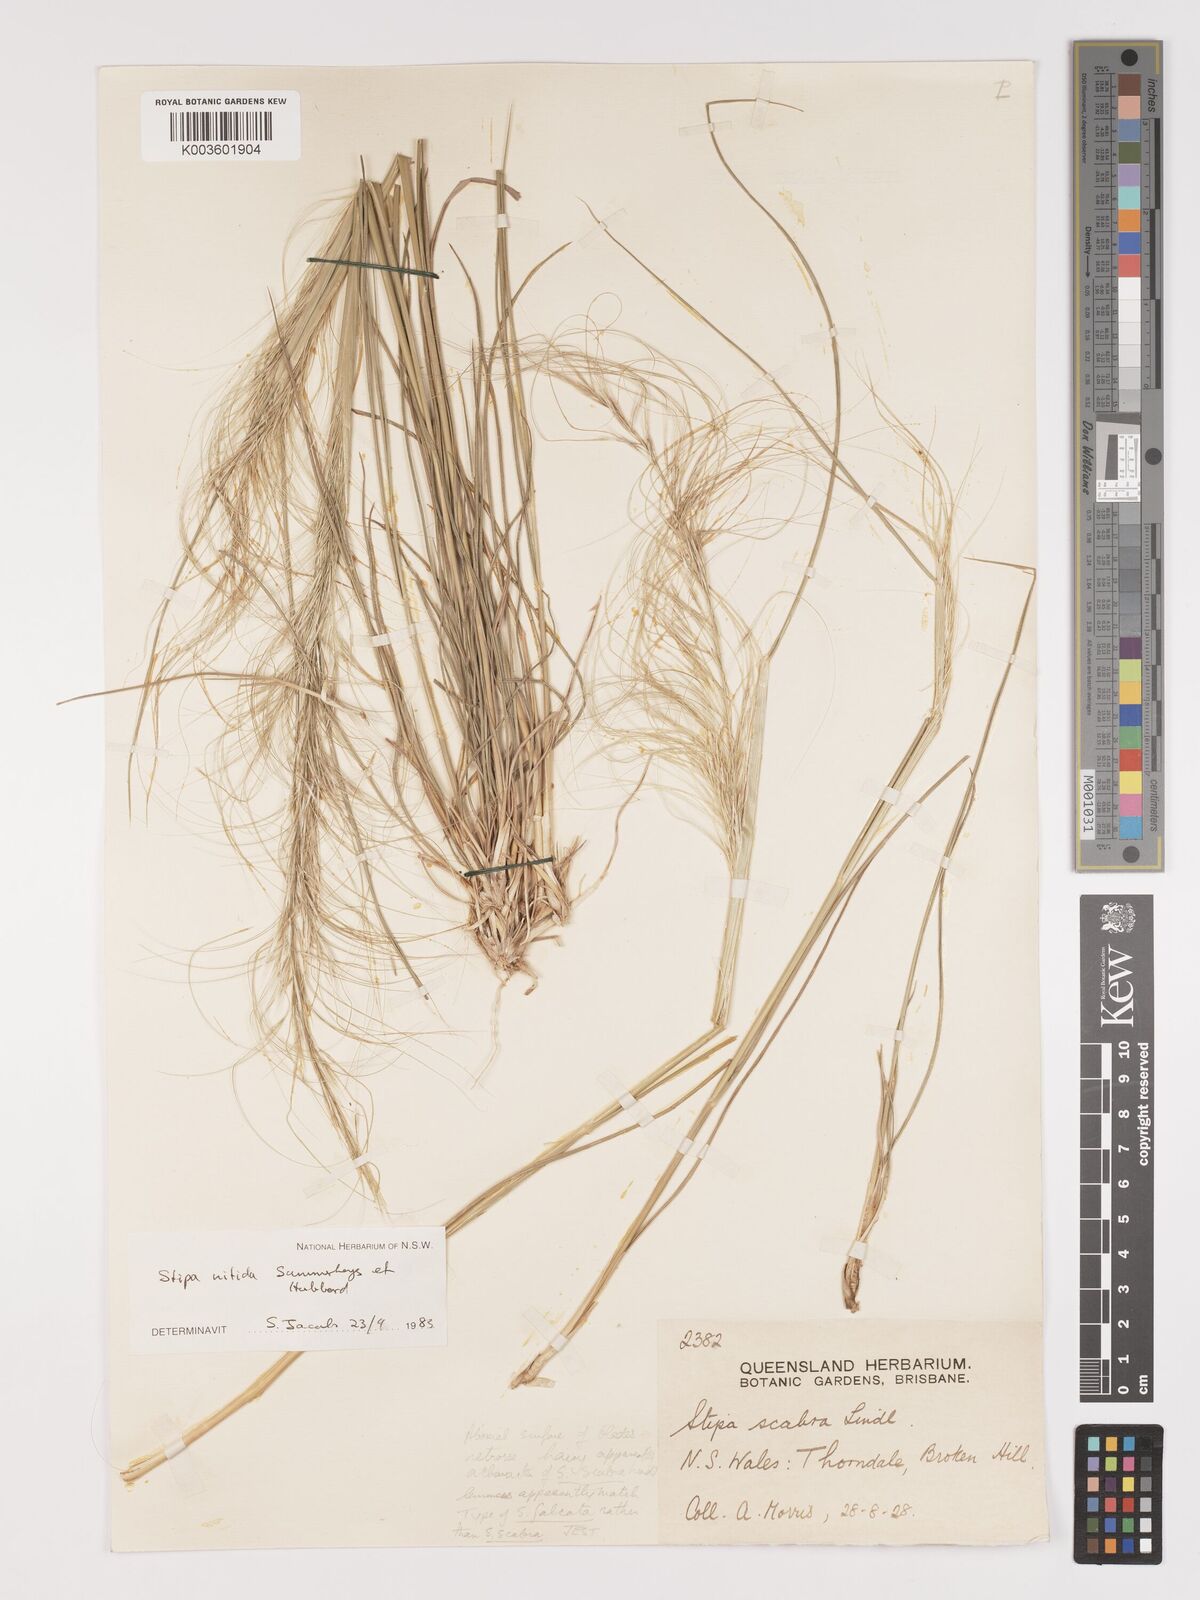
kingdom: Plantae
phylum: Tracheophyta
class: Liliopsida
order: Poales
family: Poaceae
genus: Austrostipa
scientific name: Austrostipa nitida
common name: Balcarra grass
